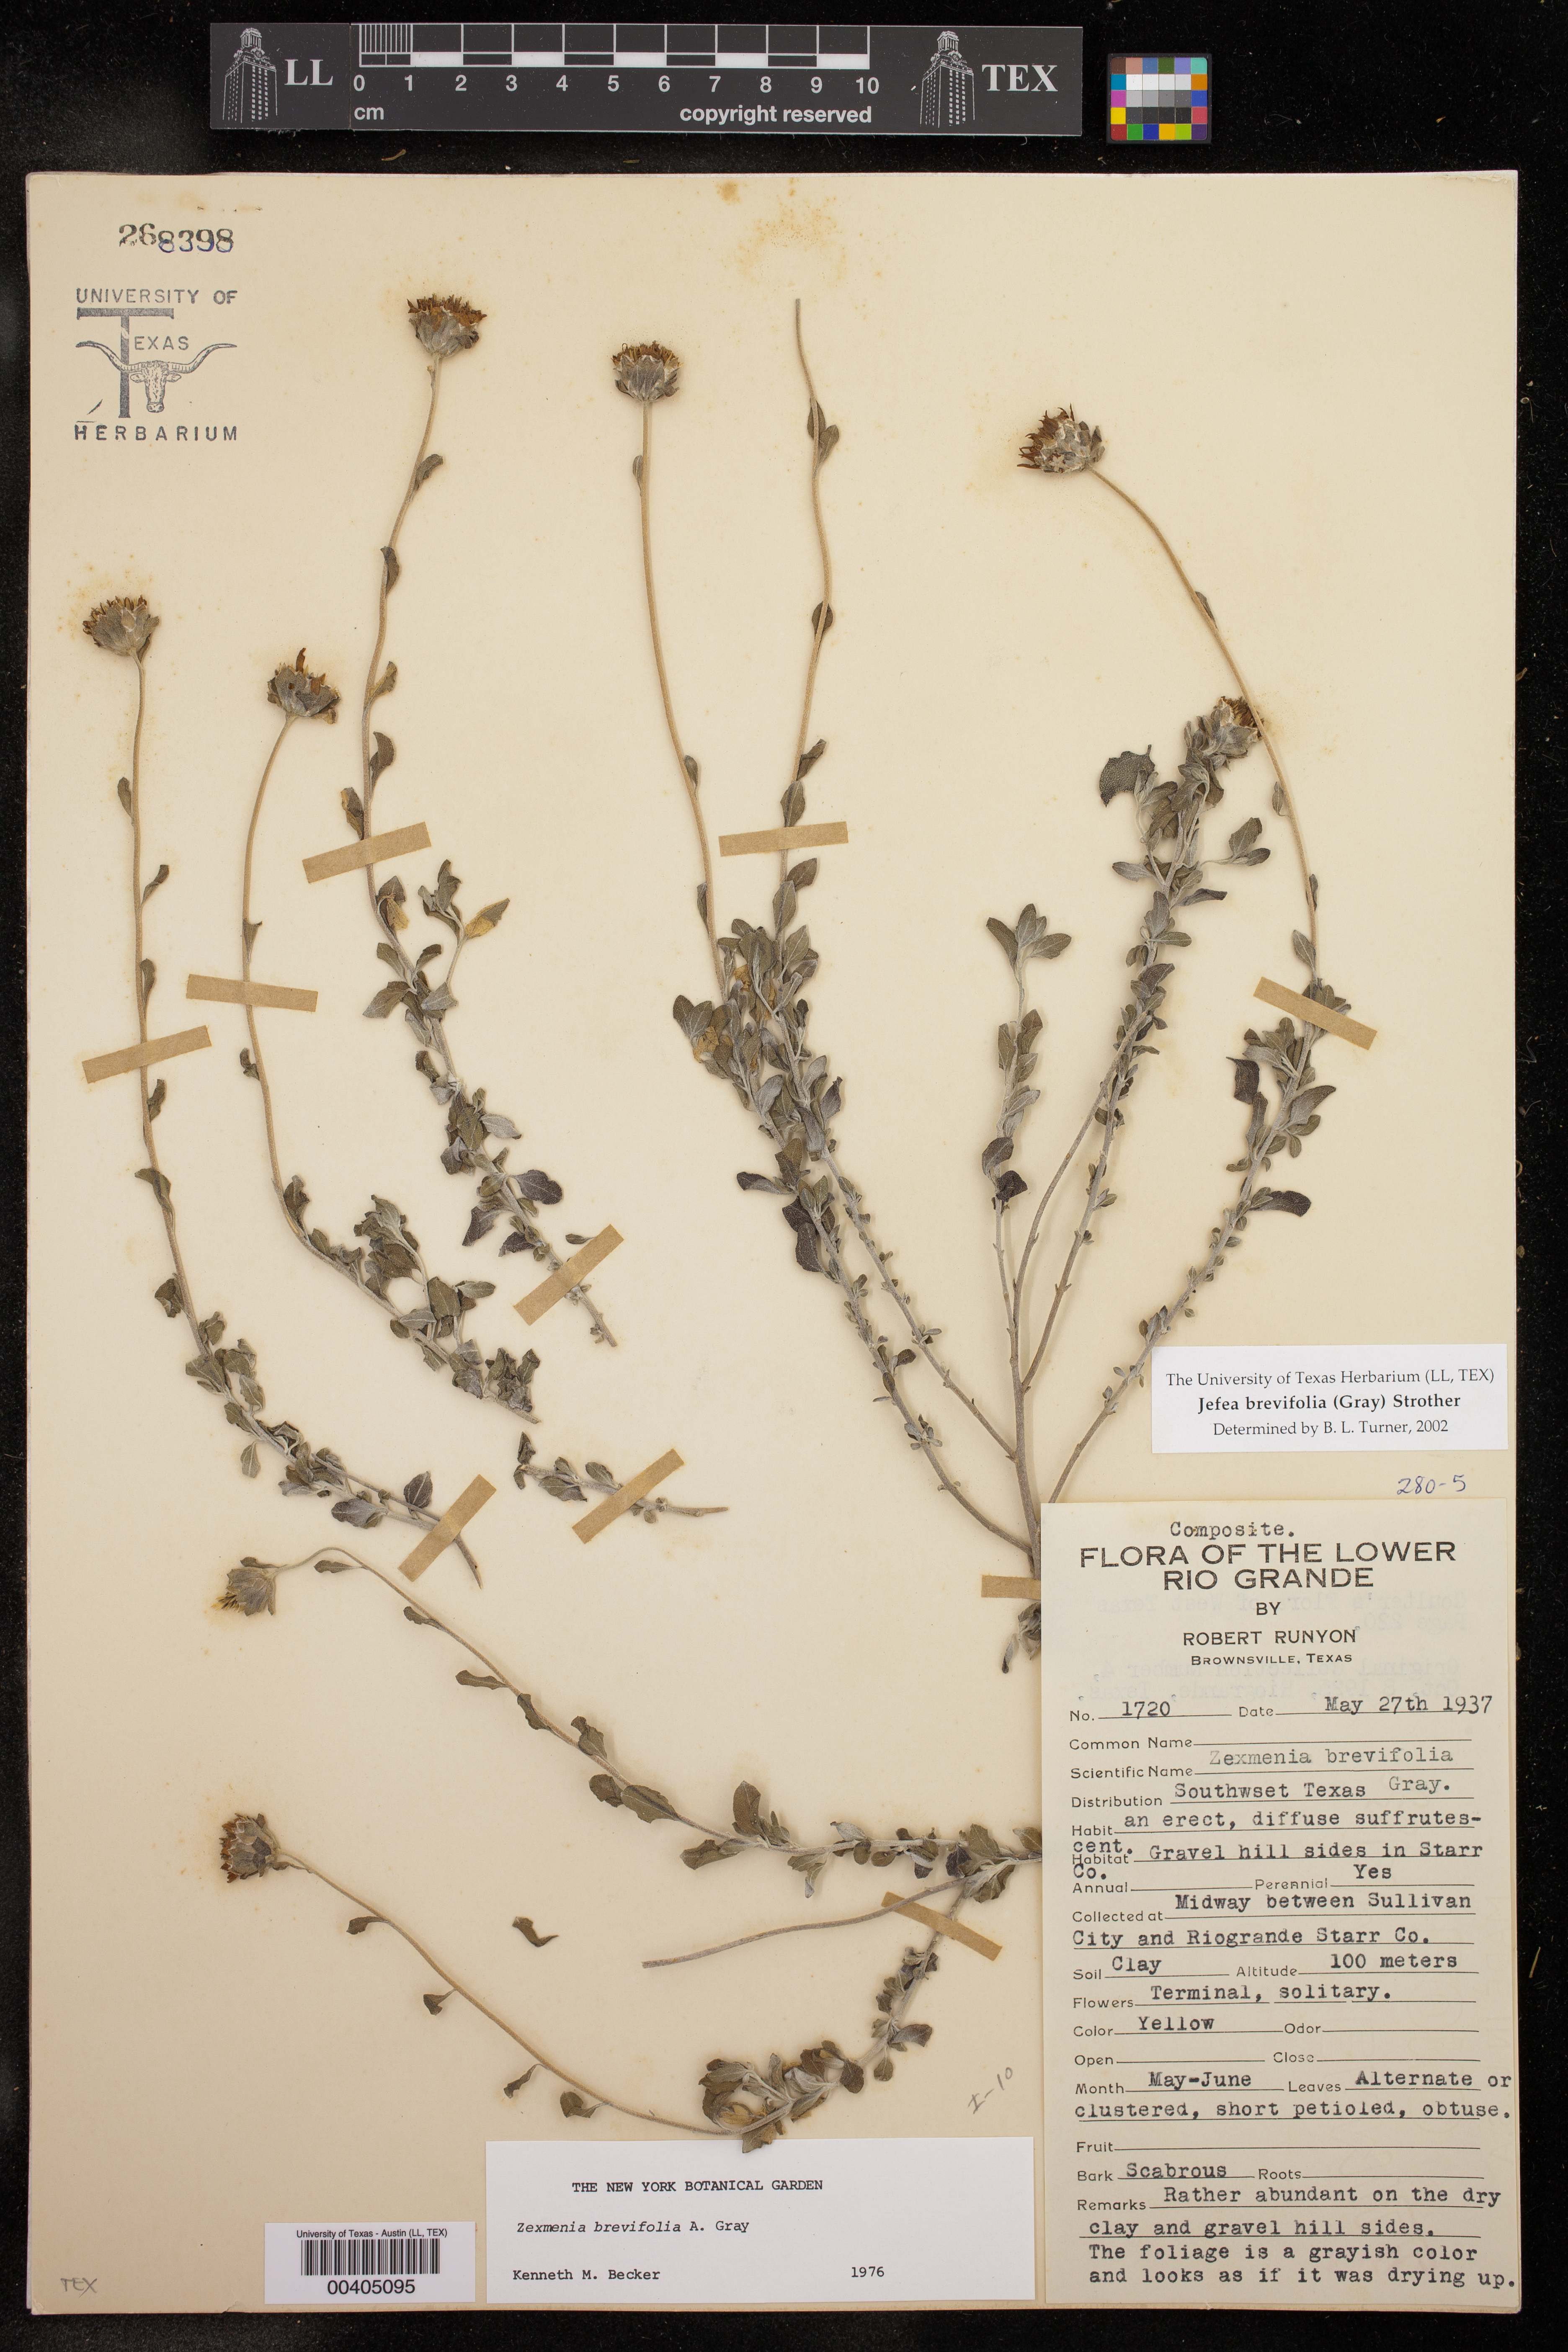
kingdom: Plantae
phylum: Tracheophyta
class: Magnoliopsida
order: Asterales
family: Asteraceae
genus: Jefea
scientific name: Jefea brevifolia
